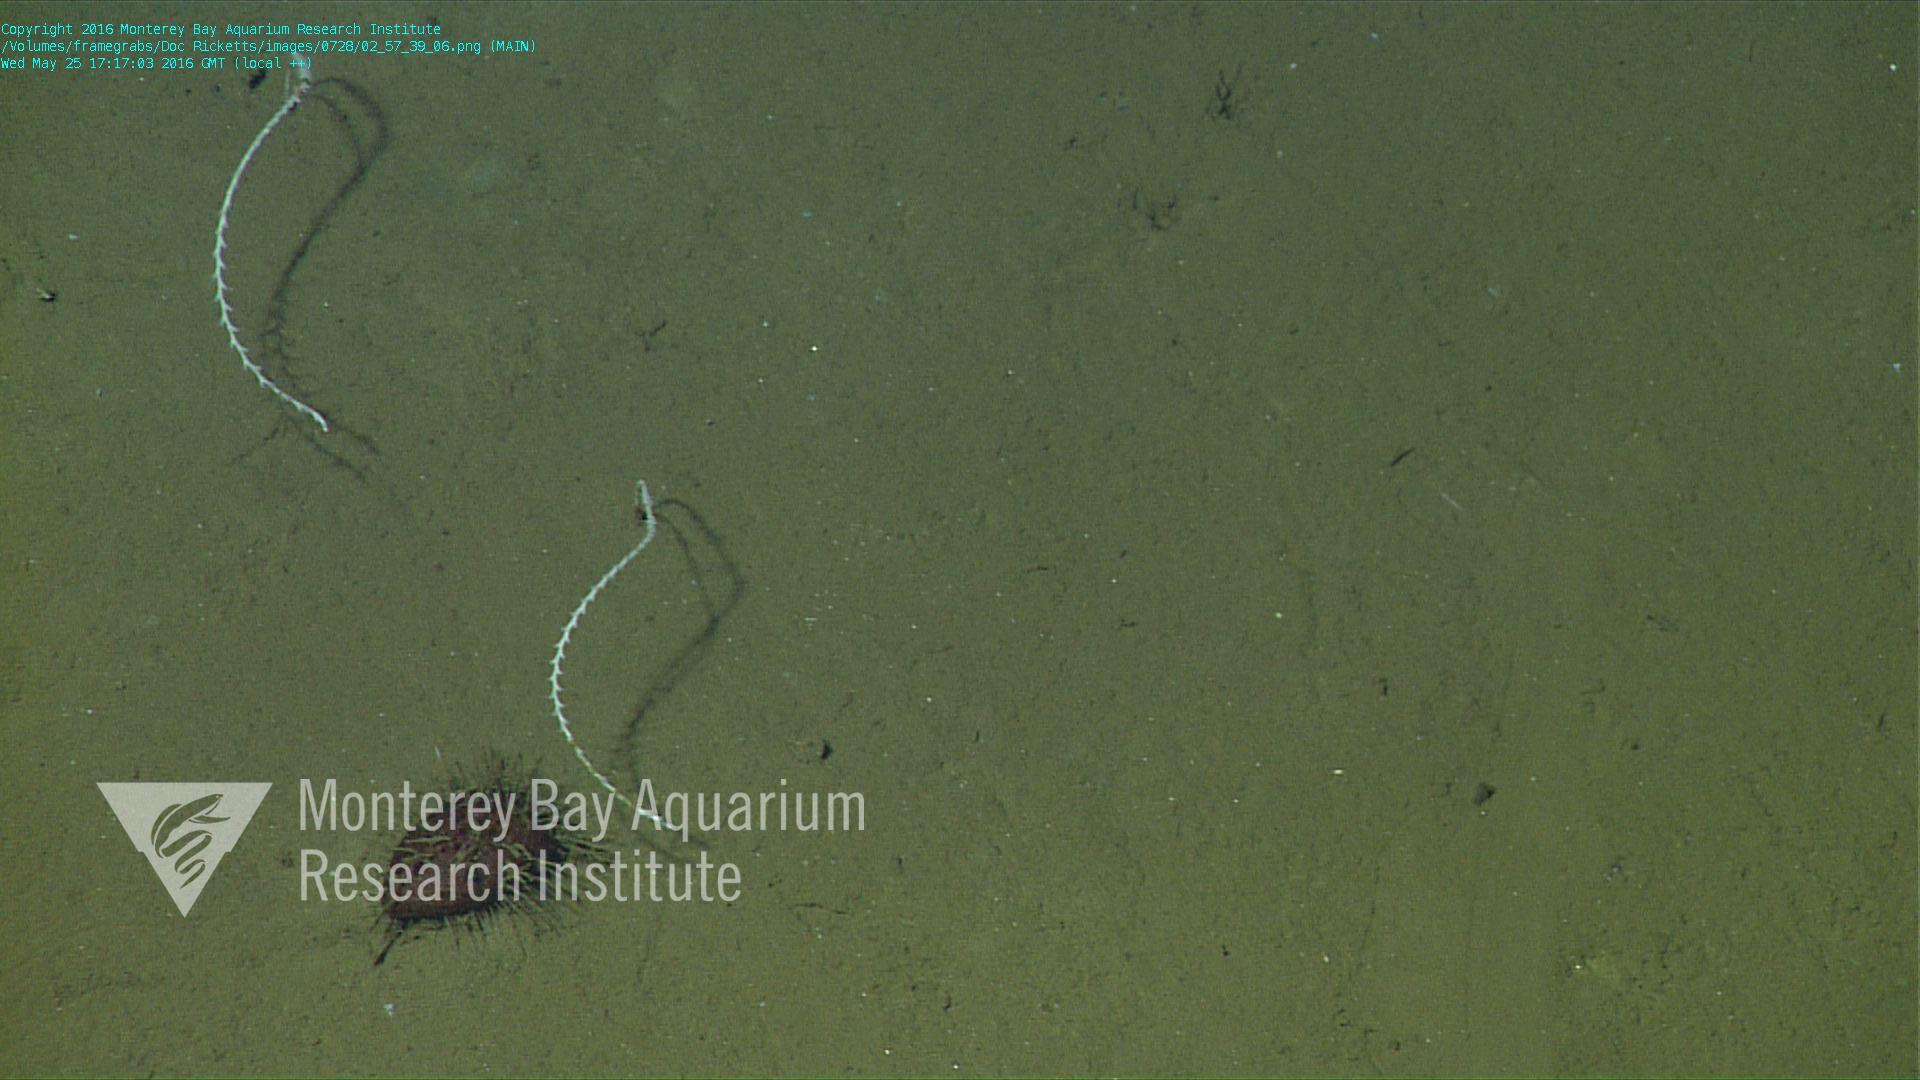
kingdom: Animalia
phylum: Cnidaria
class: Anthozoa
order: Scleralcyonacea
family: Protoptilidae
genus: Distichoptilum
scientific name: Distichoptilum
